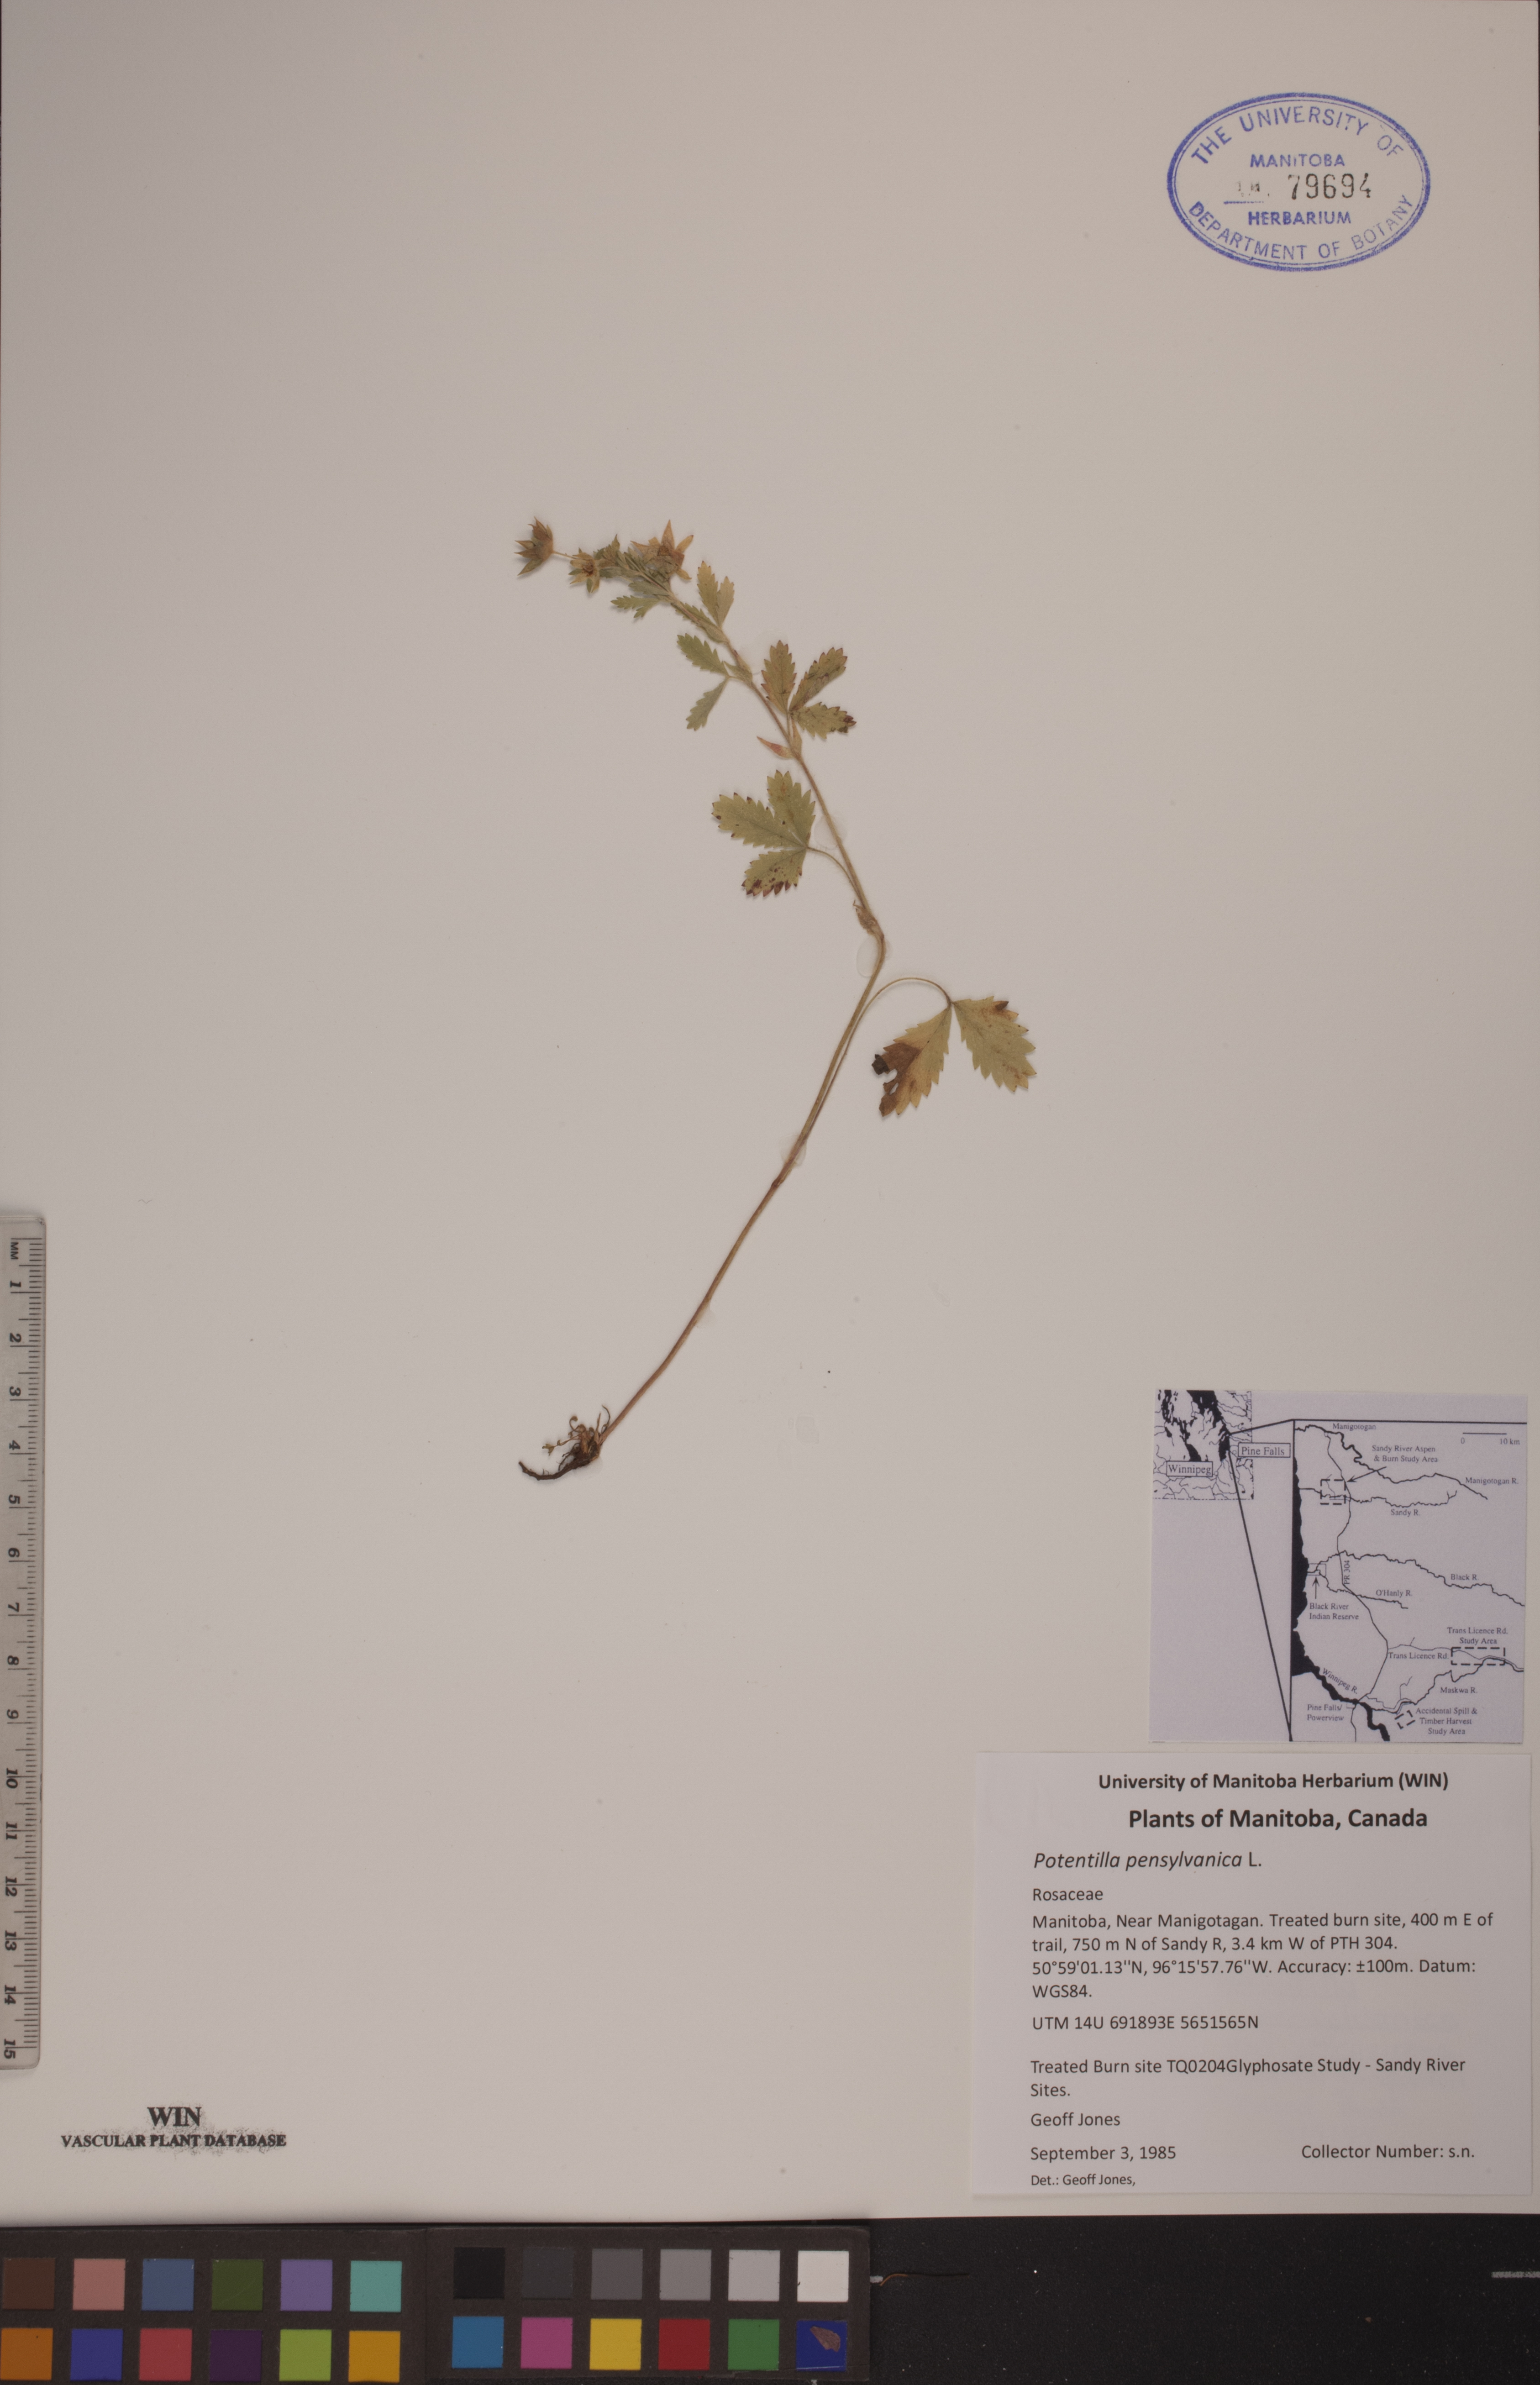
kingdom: Plantae
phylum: Tracheophyta
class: Magnoliopsida
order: Rosales
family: Rosaceae
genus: Potentilla
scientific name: Potentilla pensylvanica
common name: Pennsylvania cinquefoil
